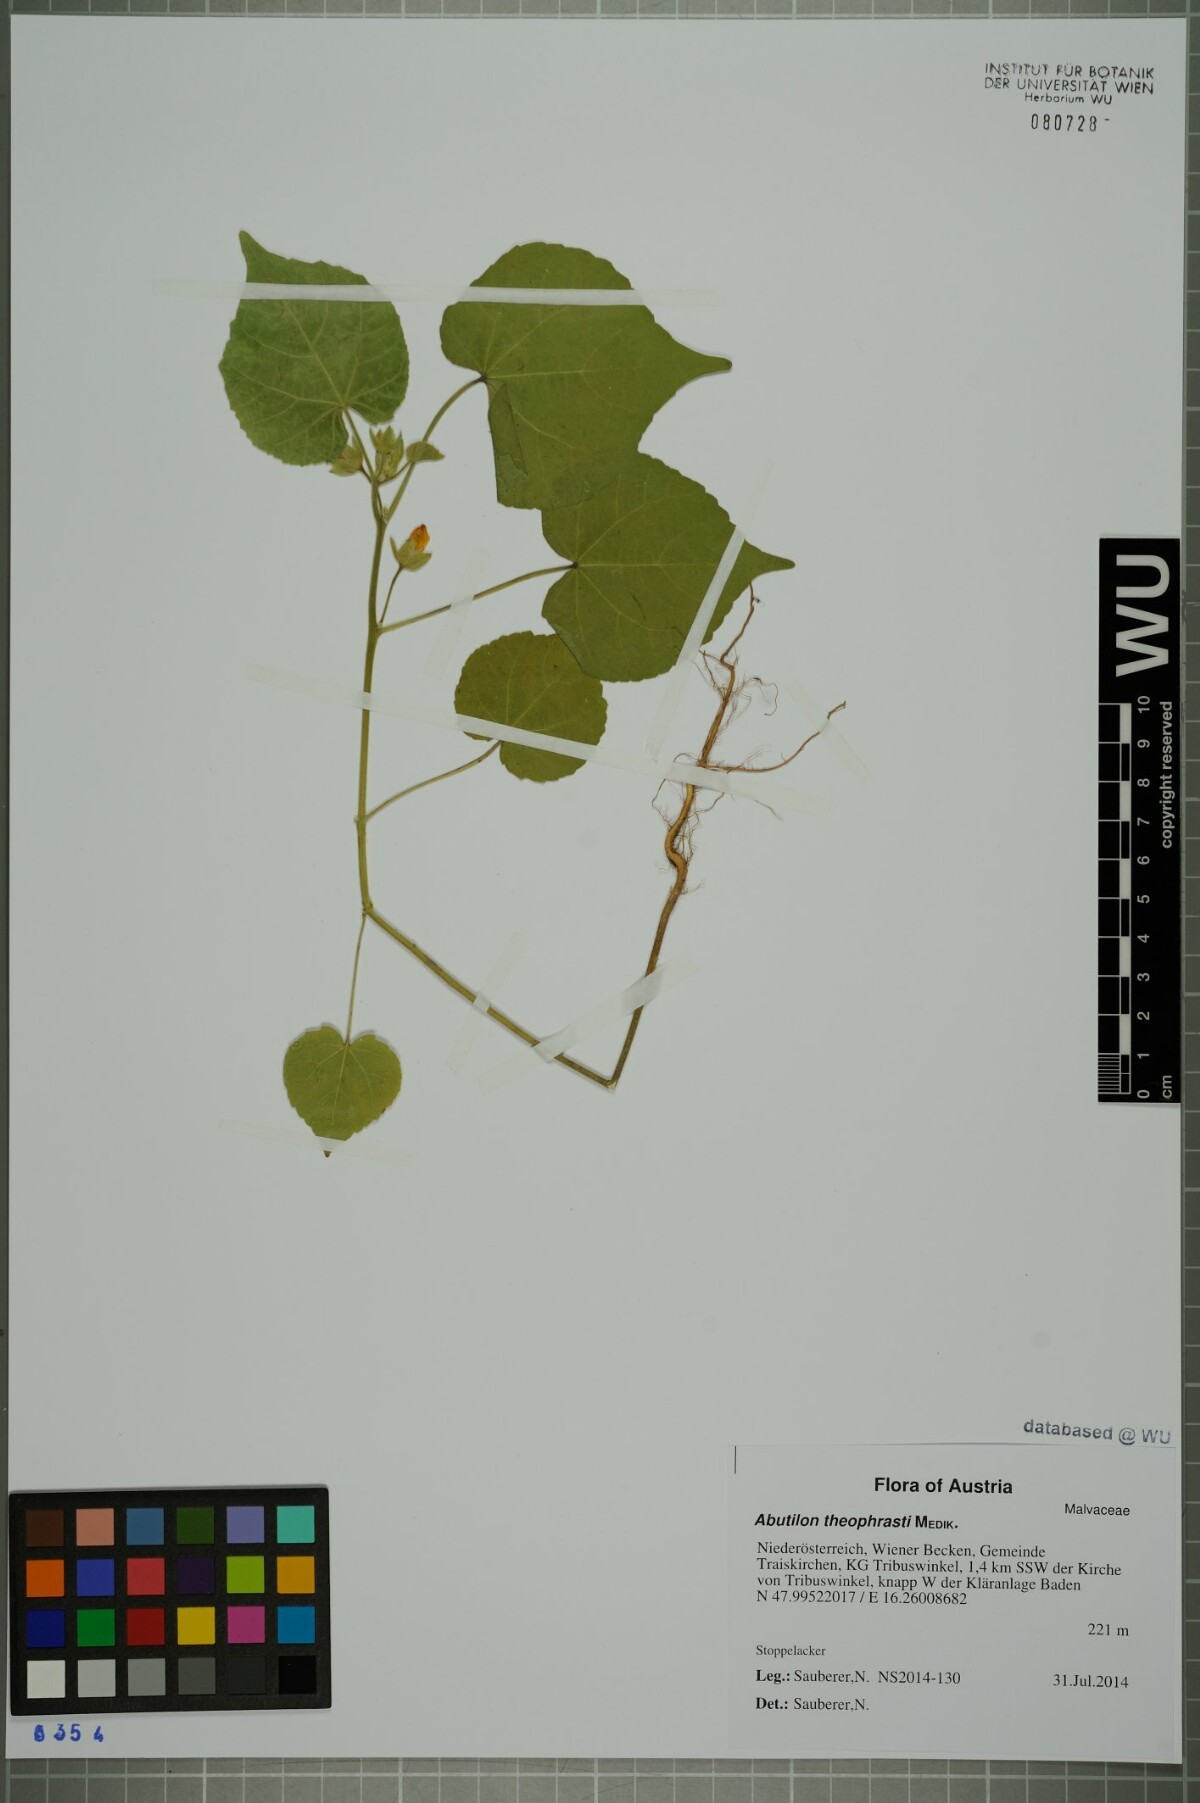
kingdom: Plantae
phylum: Tracheophyta
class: Magnoliopsida
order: Malvales
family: Malvaceae
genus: Abutilon
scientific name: Abutilon theophrasti
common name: Velvetleaf
